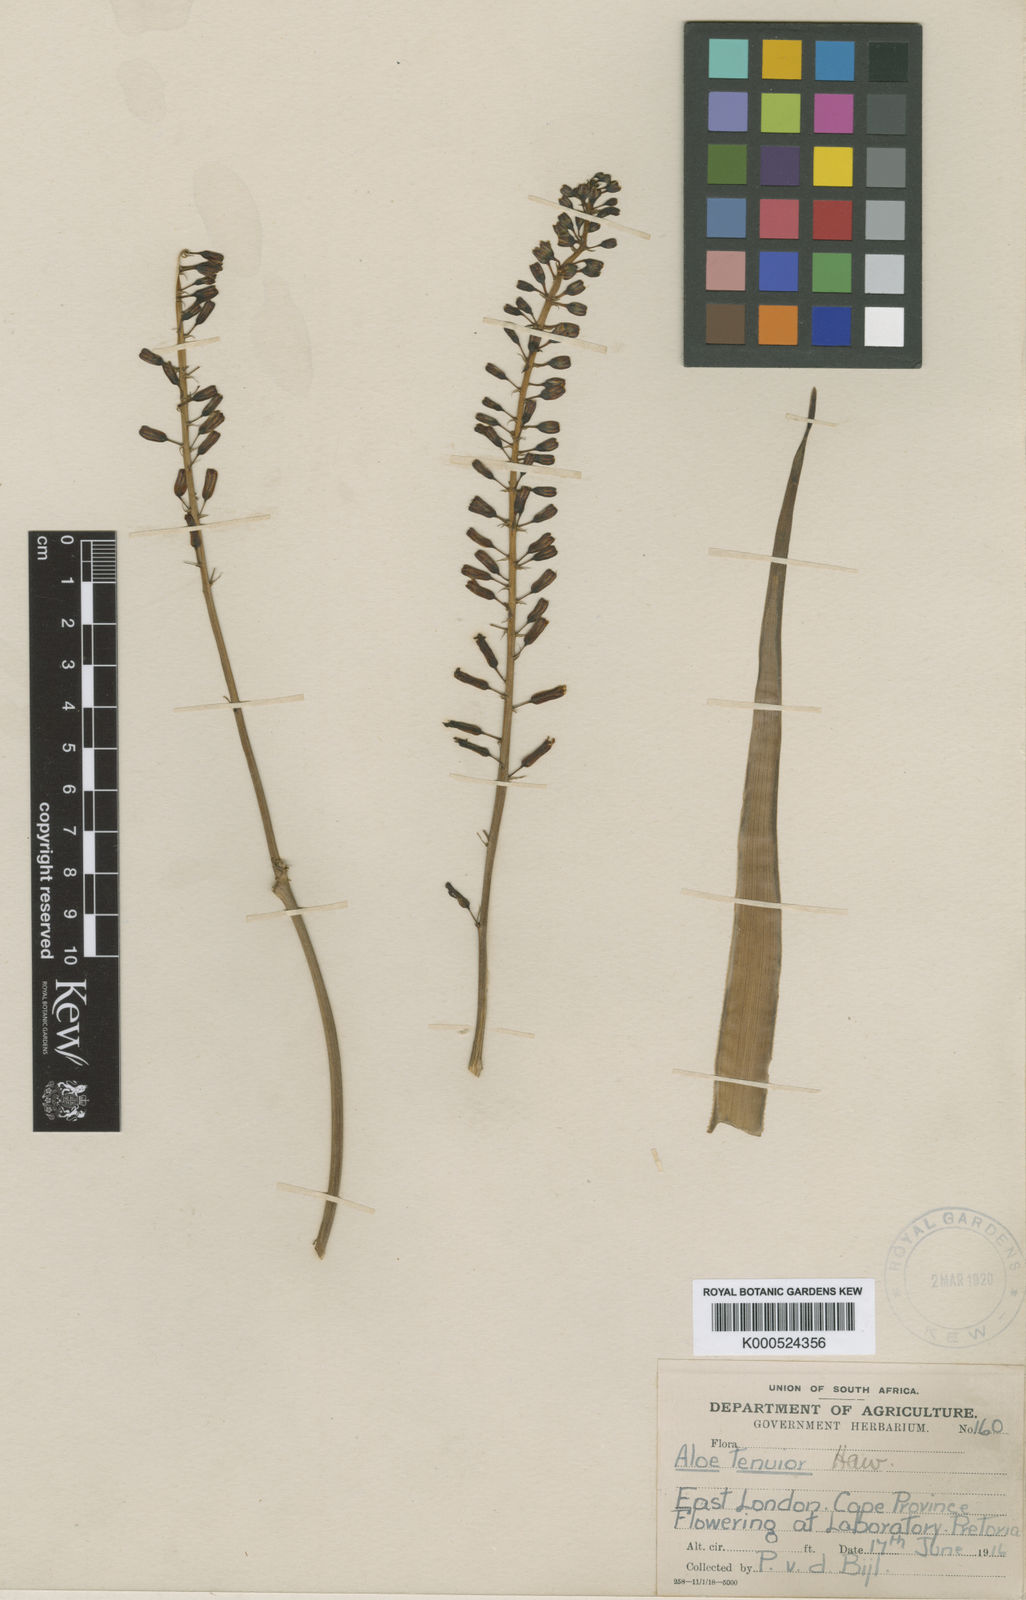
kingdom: Plantae
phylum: Tracheophyta
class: Liliopsida
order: Asparagales
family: Asphodelaceae
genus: Aloiampelos
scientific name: Aloiampelos tenuior
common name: Fence aloe
